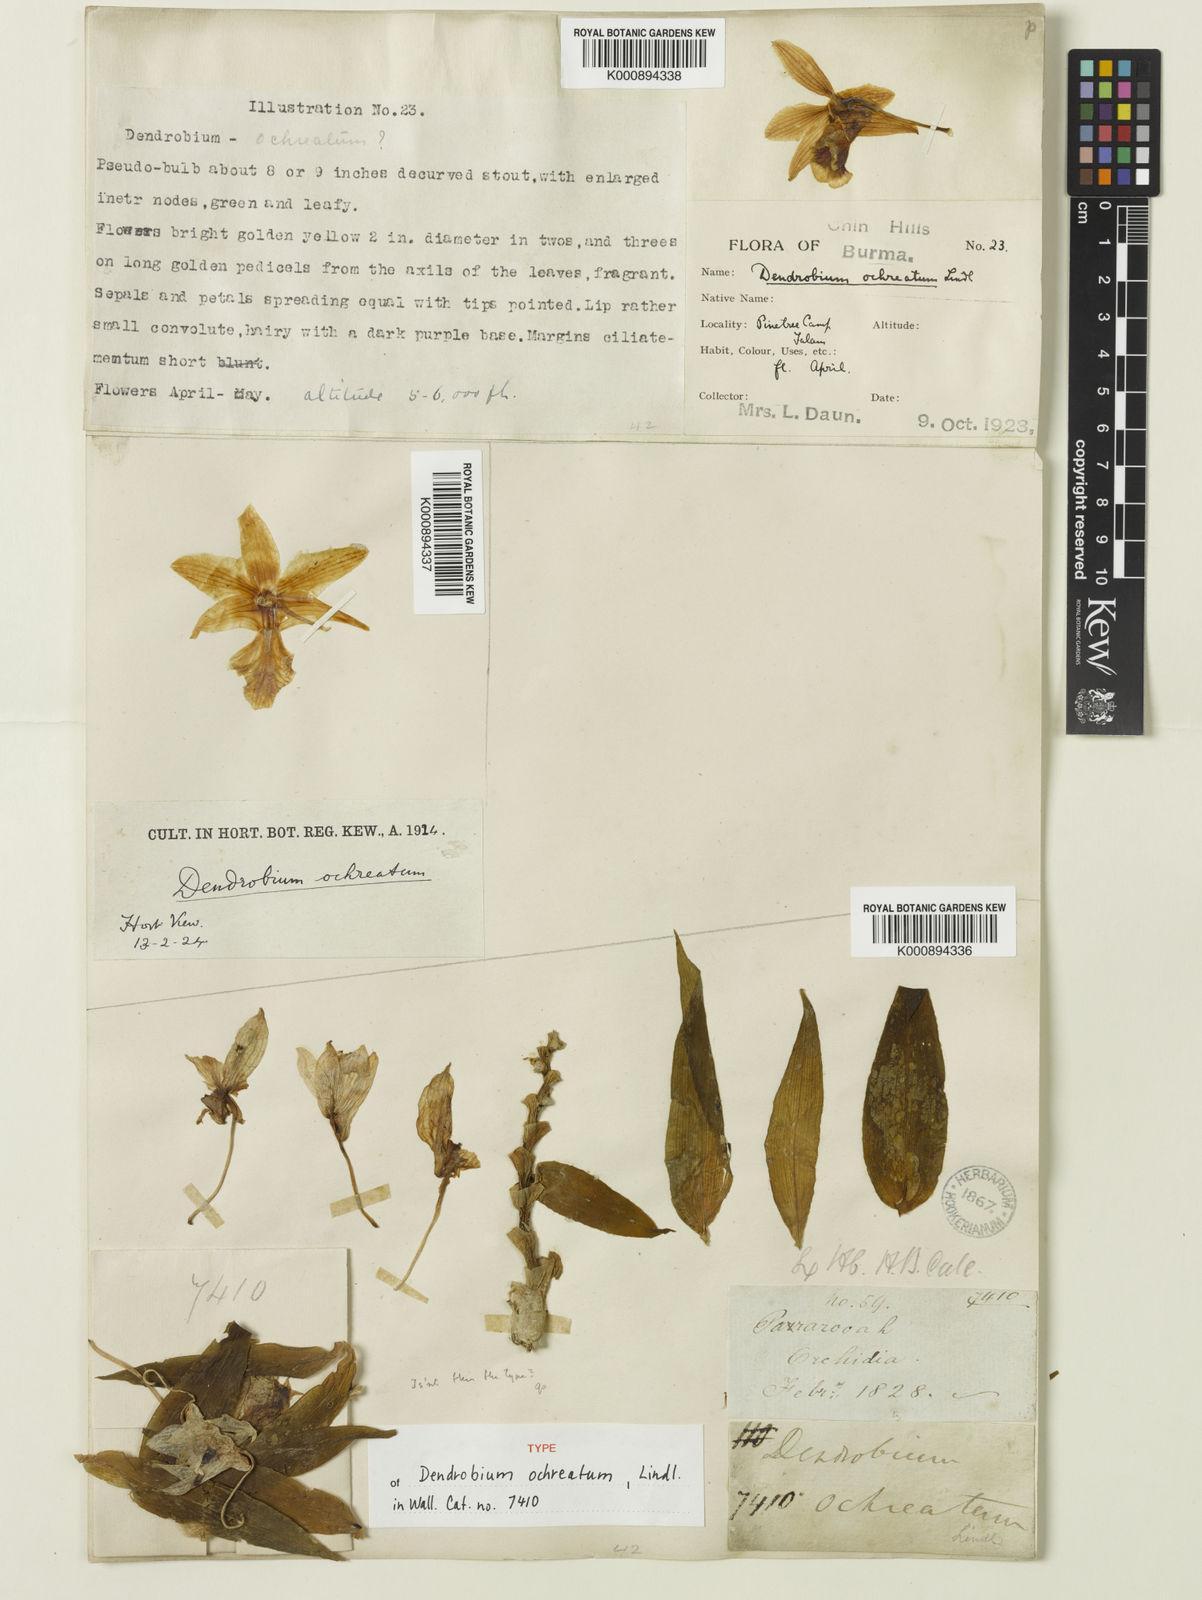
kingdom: Plantae
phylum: Tracheophyta
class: Liliopsida
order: Asparagales
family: Orchidaceae
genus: Dendrobium
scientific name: Dendrobium ochreatum
